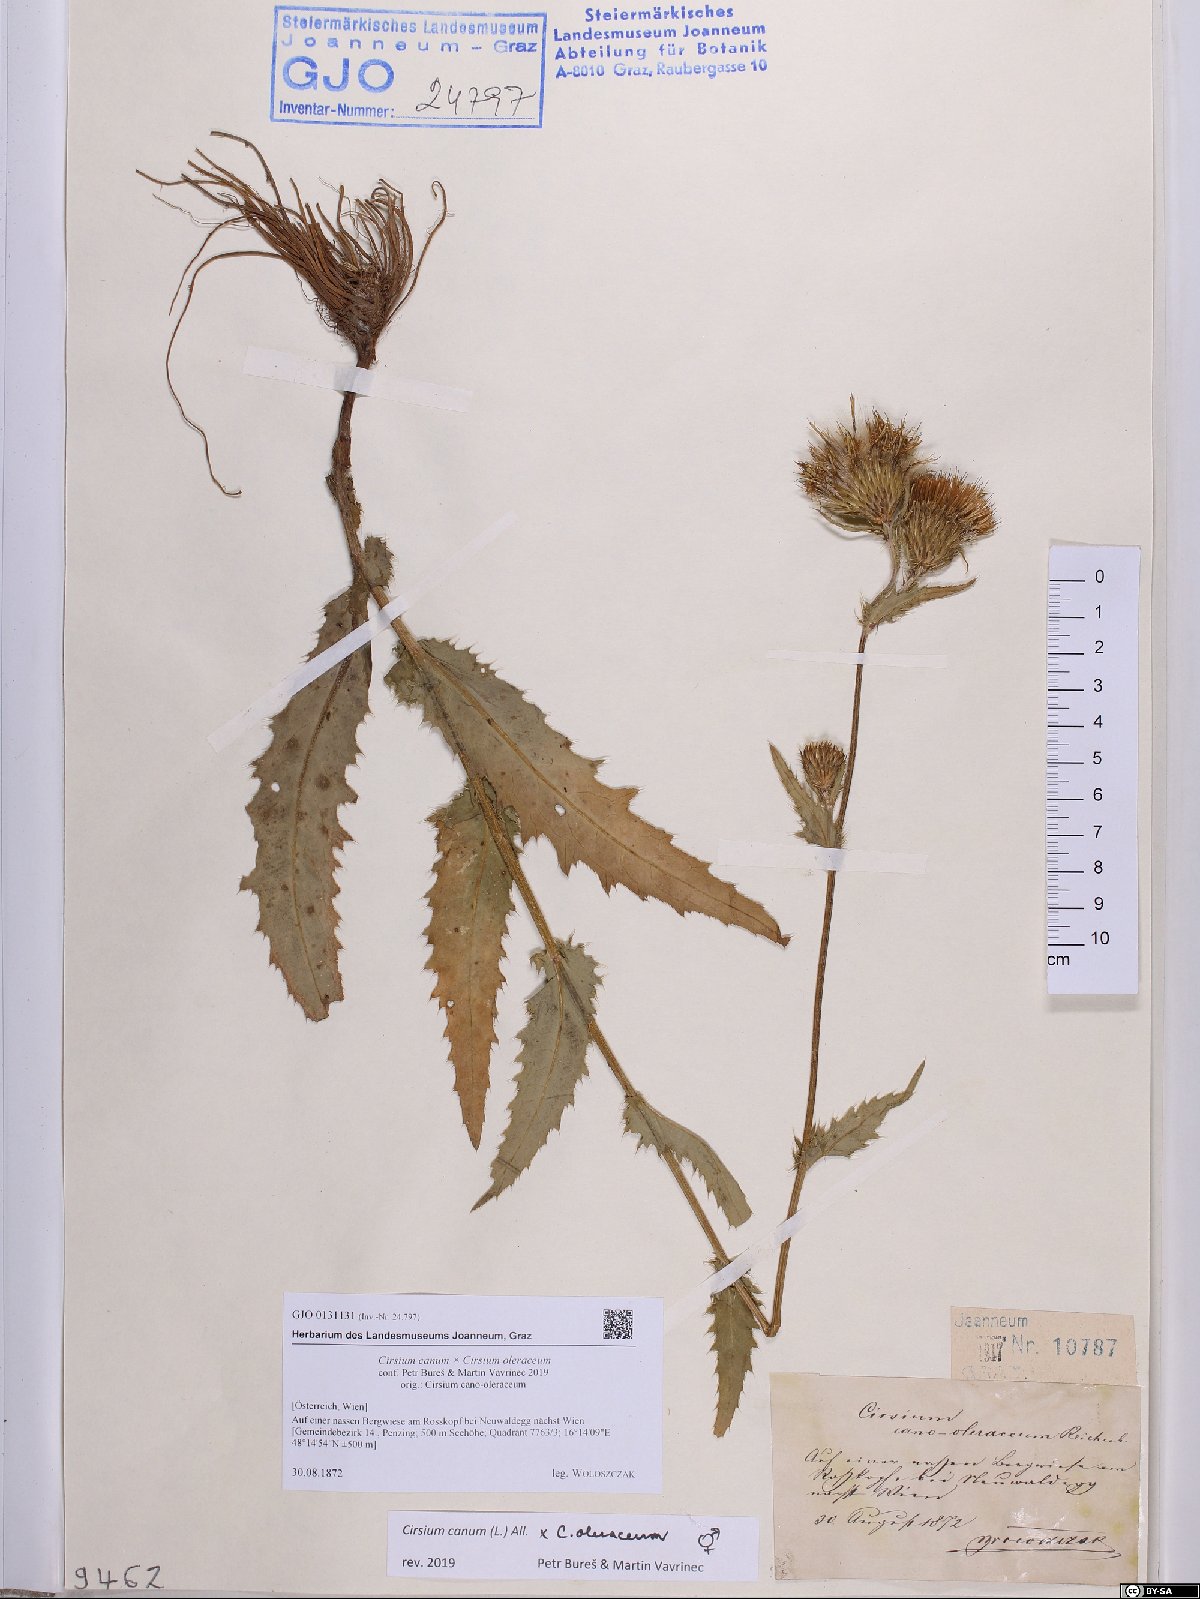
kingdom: Plantae
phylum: Tracheophyta
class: Magnoliopsida
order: Asterales
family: Asteraceae
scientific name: Asteraceae
